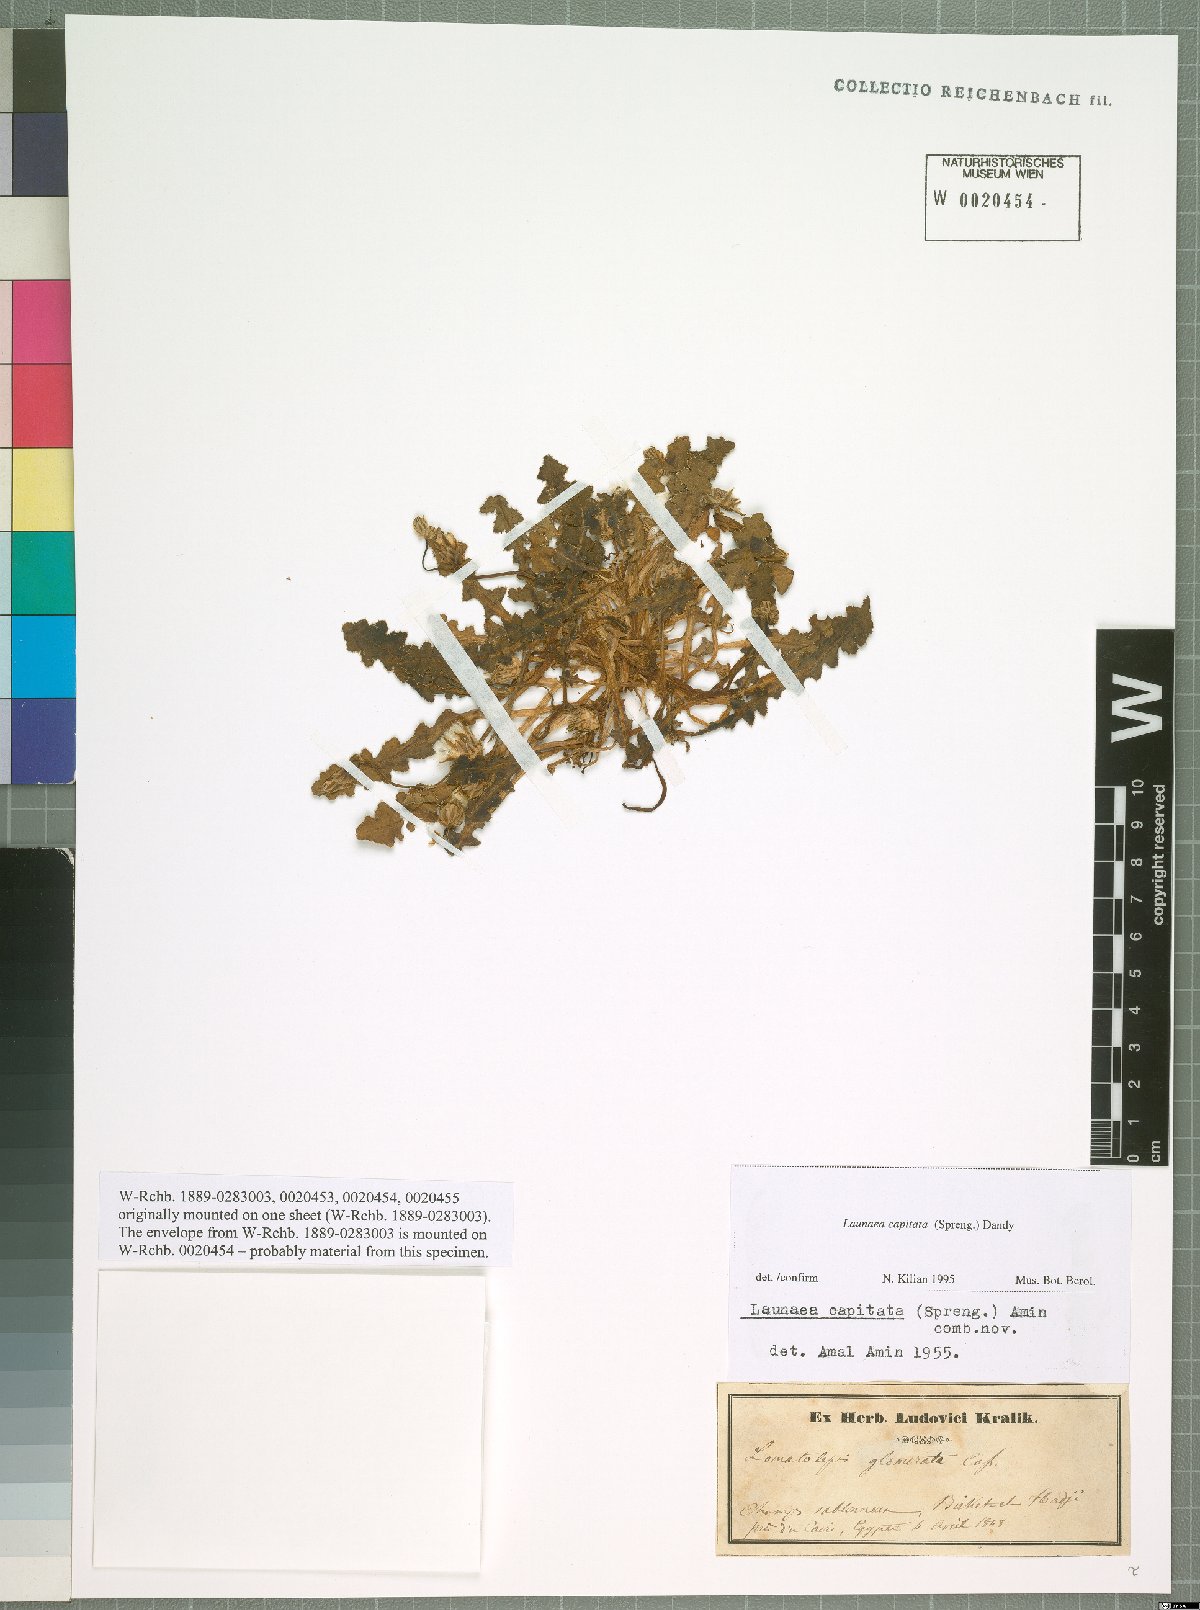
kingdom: Plantae
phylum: Tracheophyta
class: Magnoliopsida
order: Asterales
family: Asteraceae
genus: Launaea
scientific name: Launaea capitata
